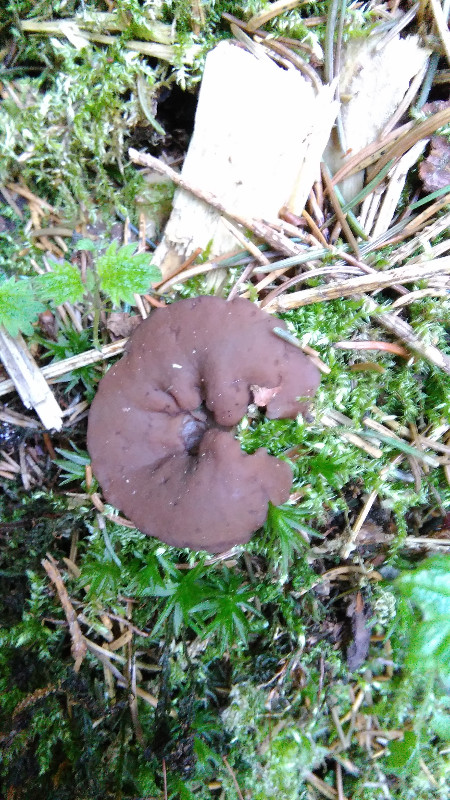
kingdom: Fungi
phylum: Ascomycota
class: Pezizomycetes
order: Pezizales
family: Discinaceae
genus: Discina
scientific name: Discina ancilis
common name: udbredt stenmorkel
